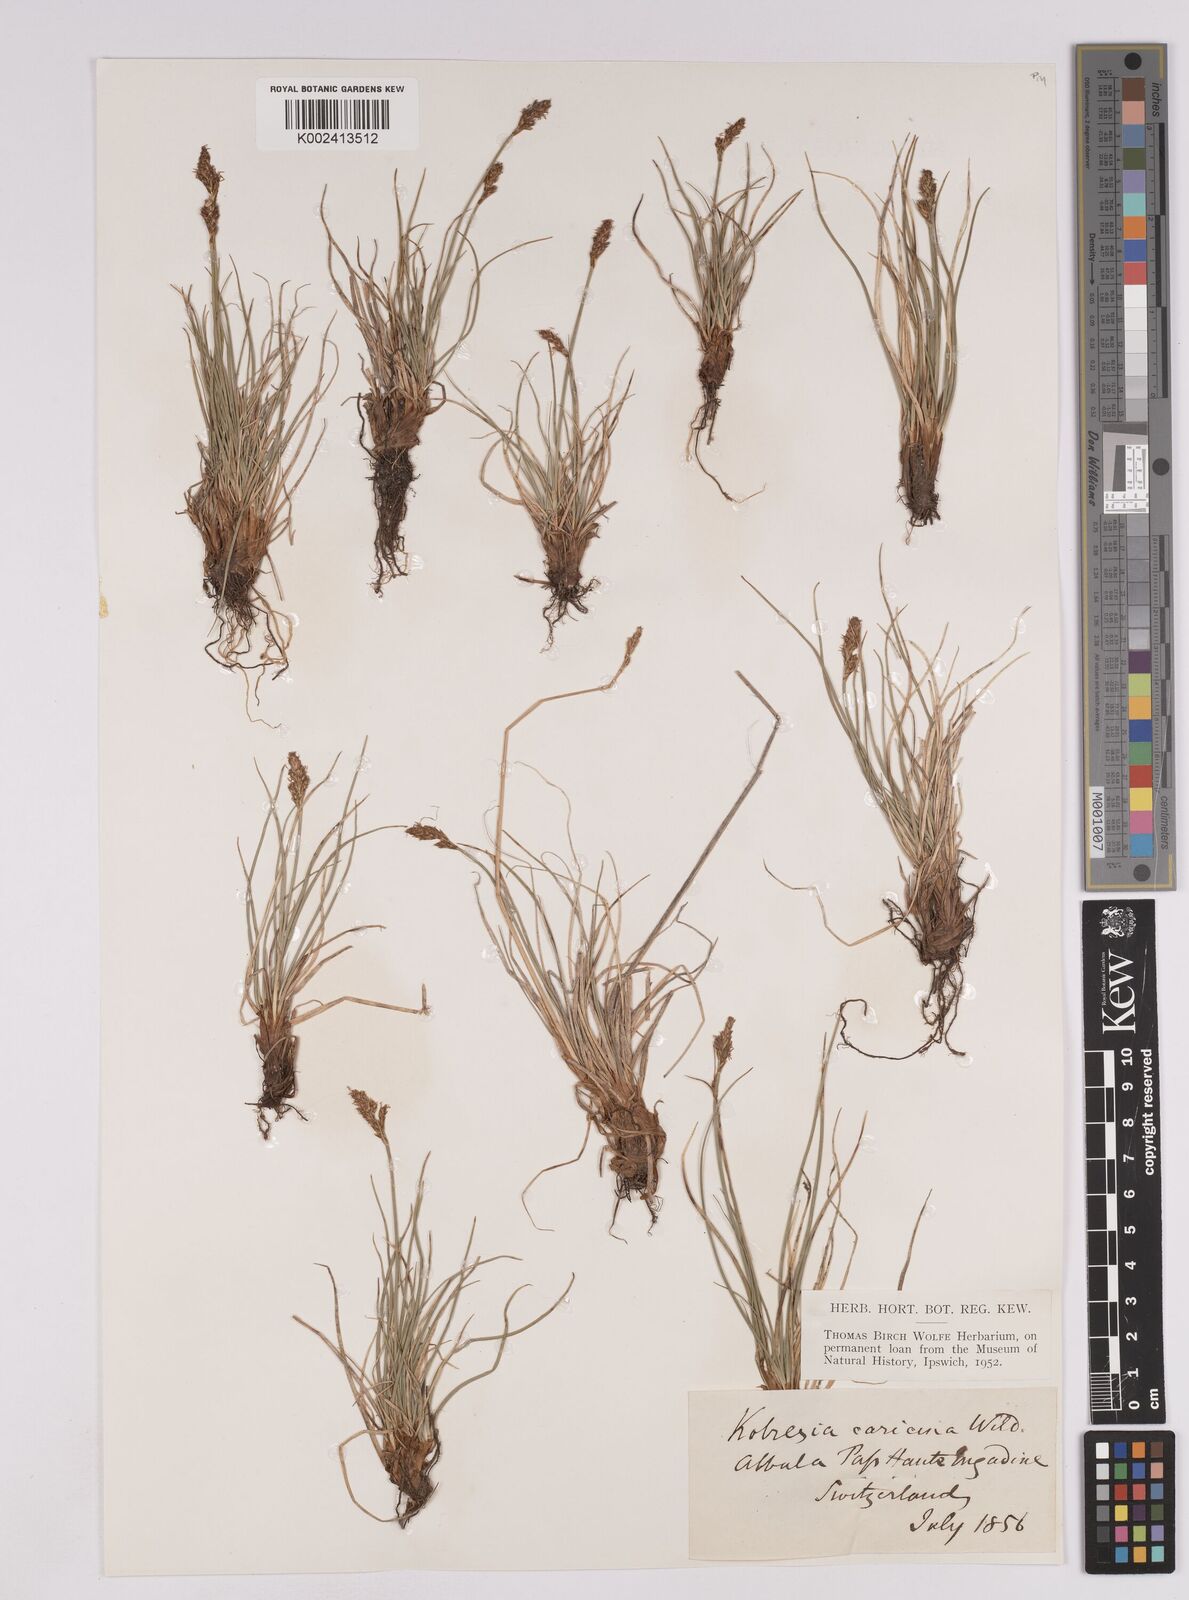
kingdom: Plantae
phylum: Tracheophyta
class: Liliopsida
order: Poales
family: Cyperaceae
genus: Carex
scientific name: Carex simpliciuscula
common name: Simple bog sedge
